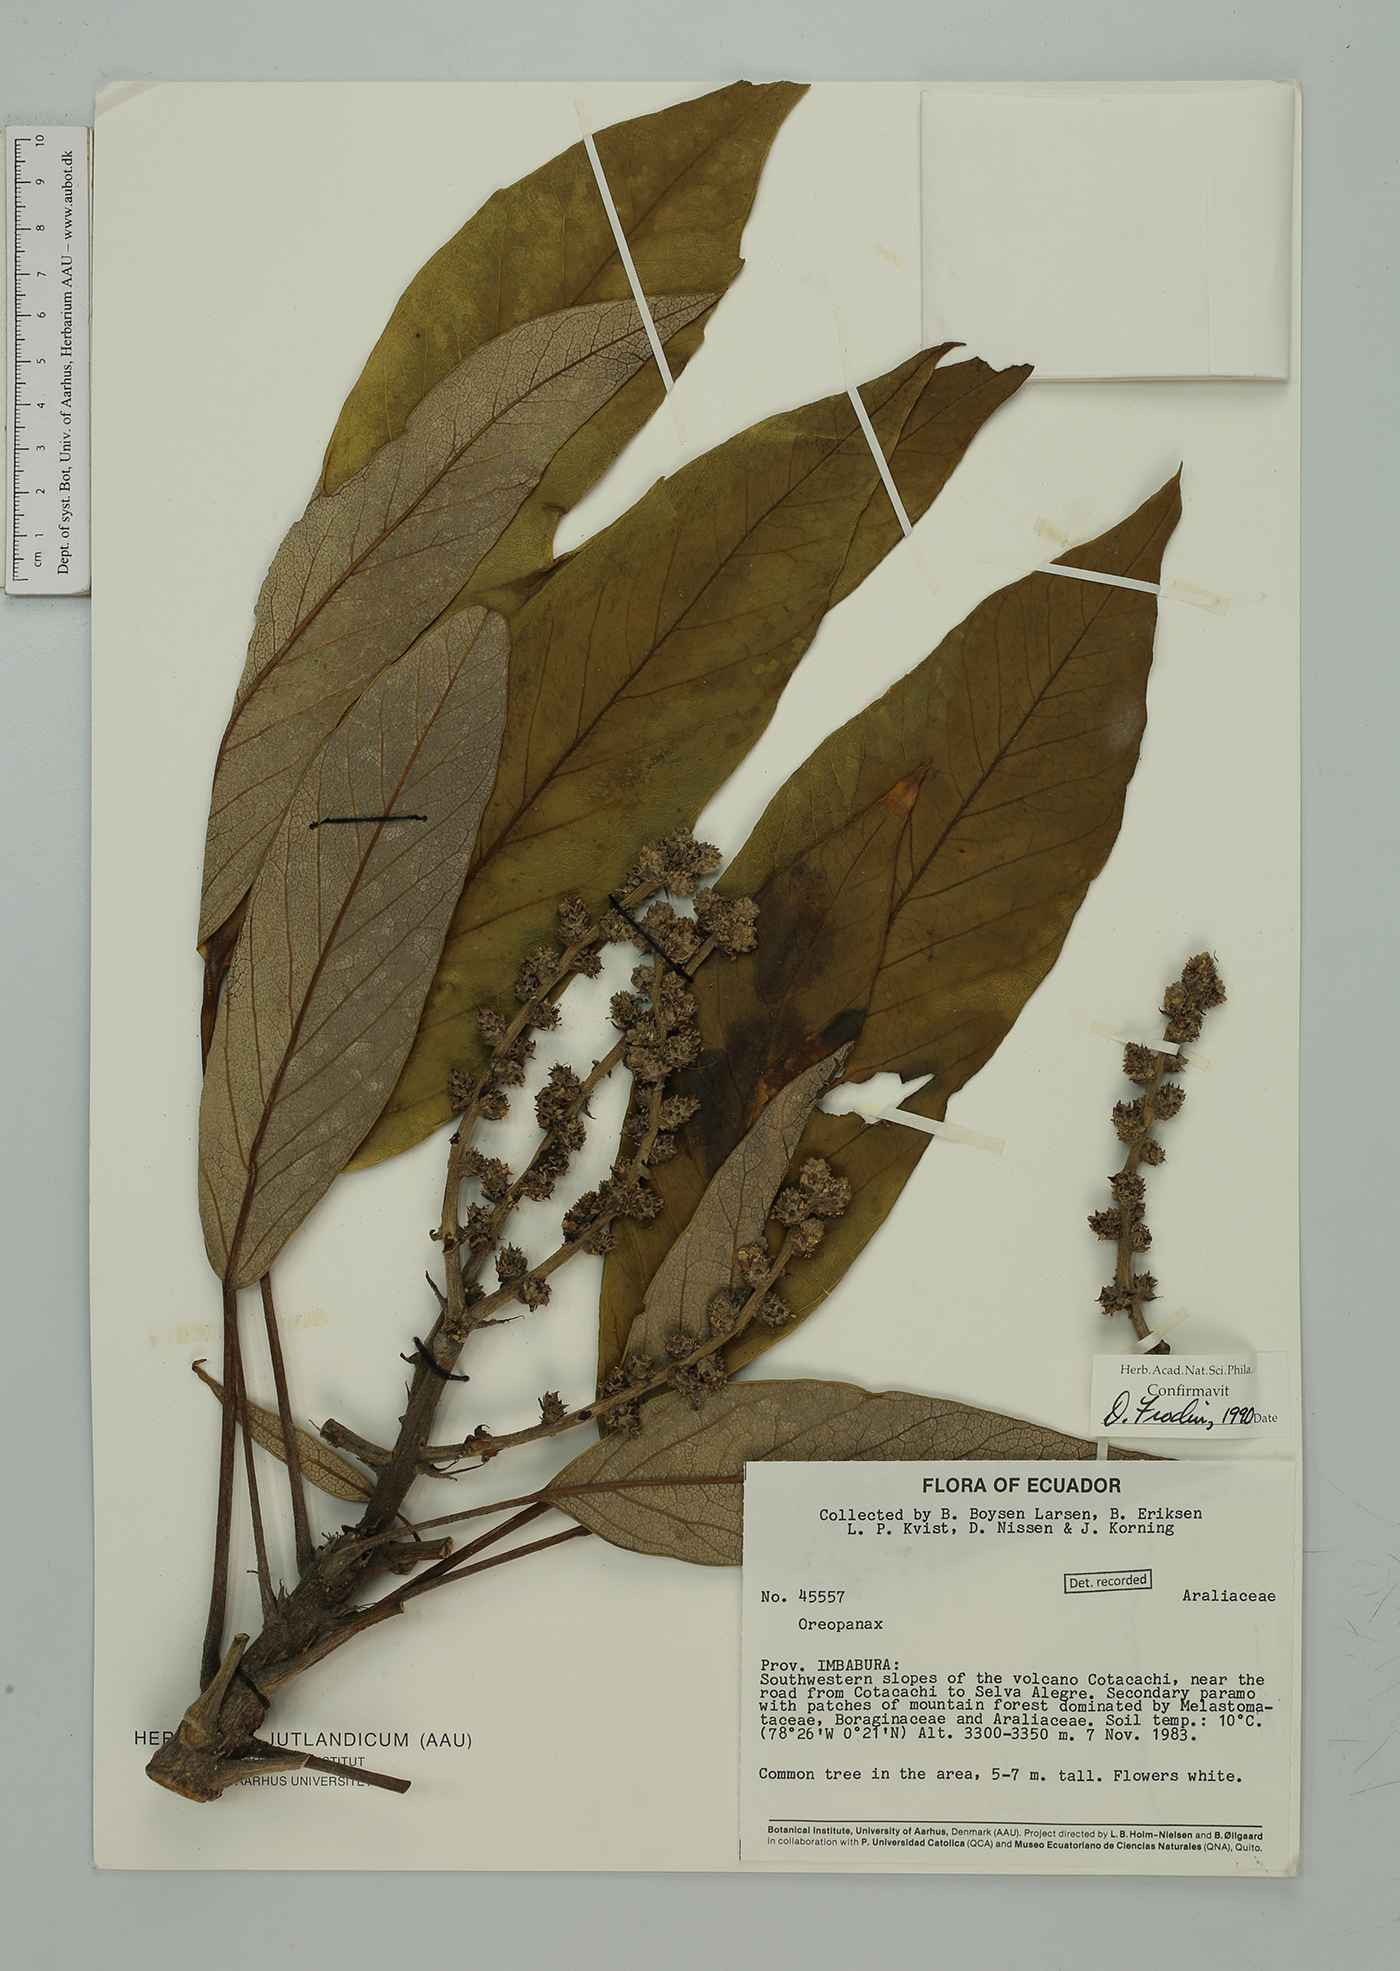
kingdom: Plantae
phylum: Tracheophyta
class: Magnoliopsida
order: Apiales
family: Araliaceae
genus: Oreopanax
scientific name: Oreopanax
